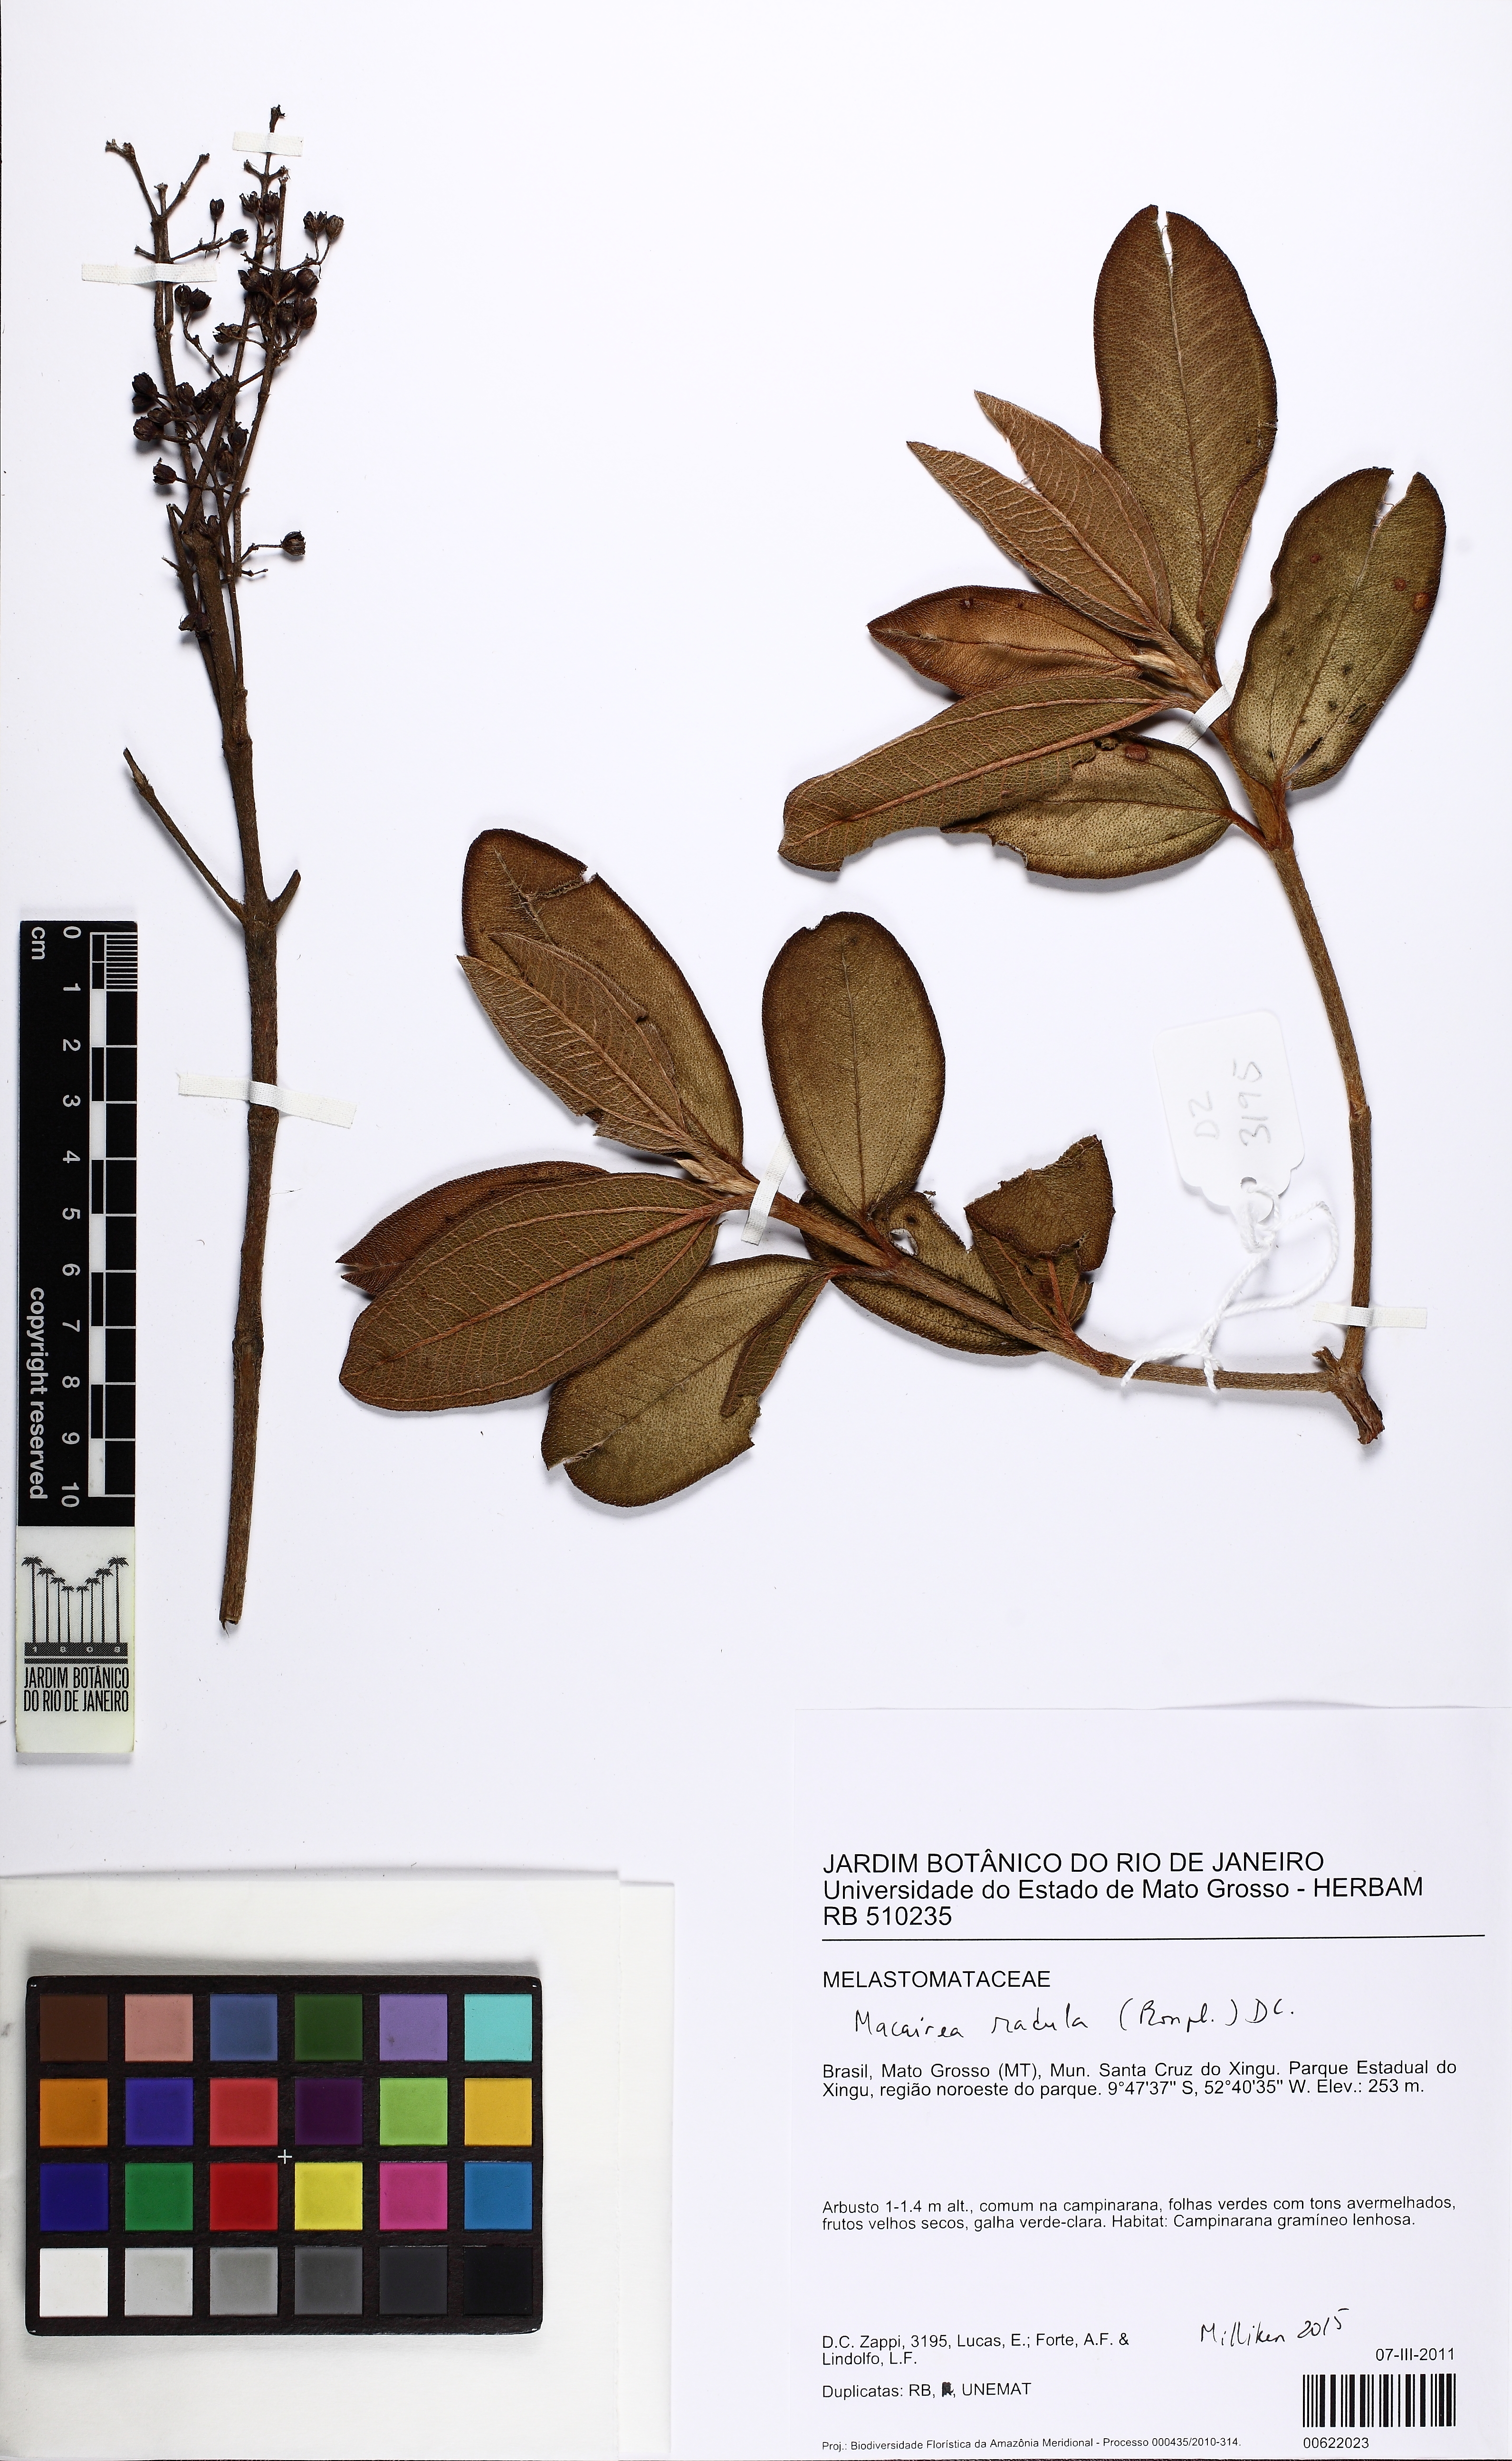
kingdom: Plantae
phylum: Tracheophyta
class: Magnoliopsida
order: Myrtales
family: Melastomataceae
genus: Macairea
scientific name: Macairea radula
